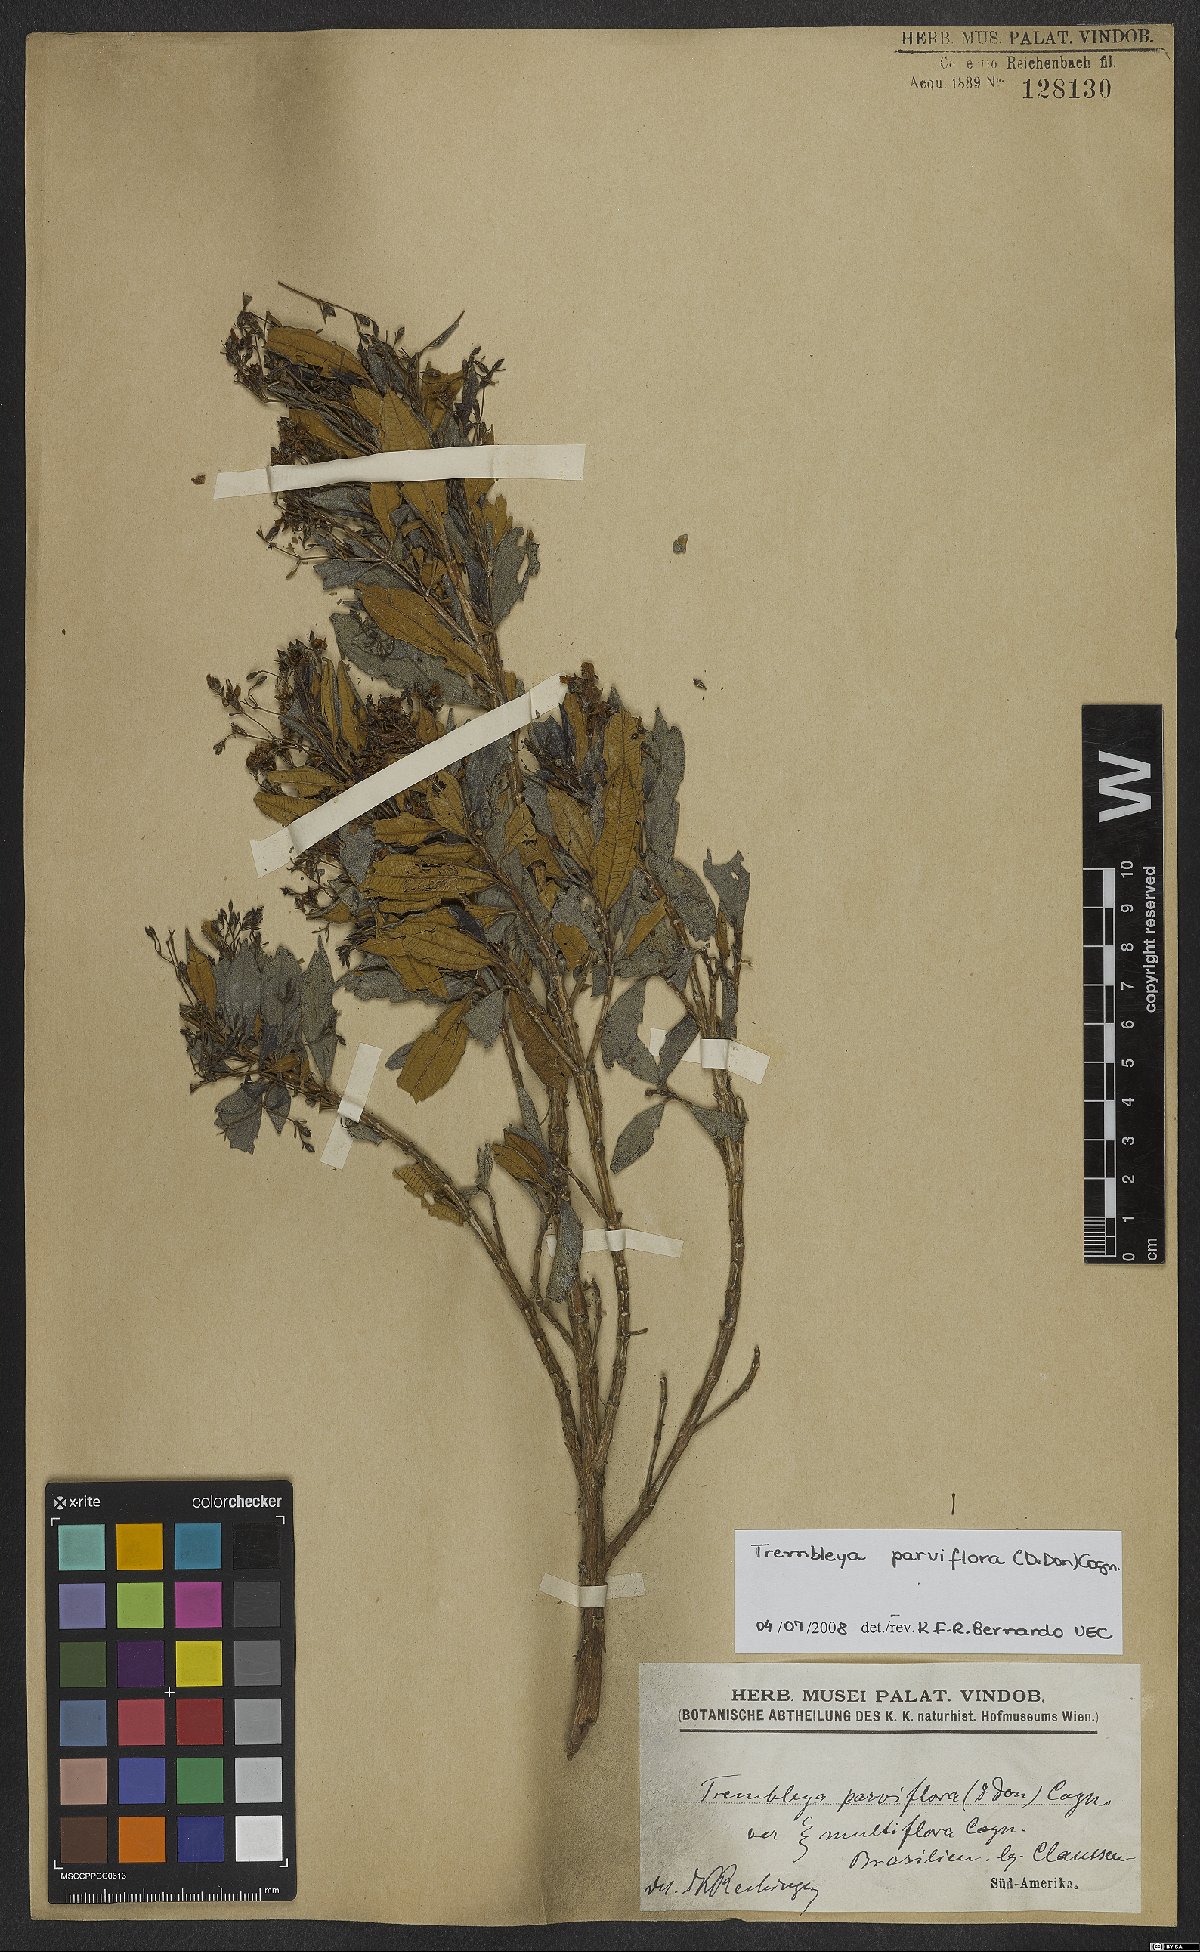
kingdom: Plantae
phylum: Tracheophyta
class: Magnoliopsida
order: Myrtales
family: Melastomataceae
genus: Microlicia
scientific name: Microlicia parviflora
